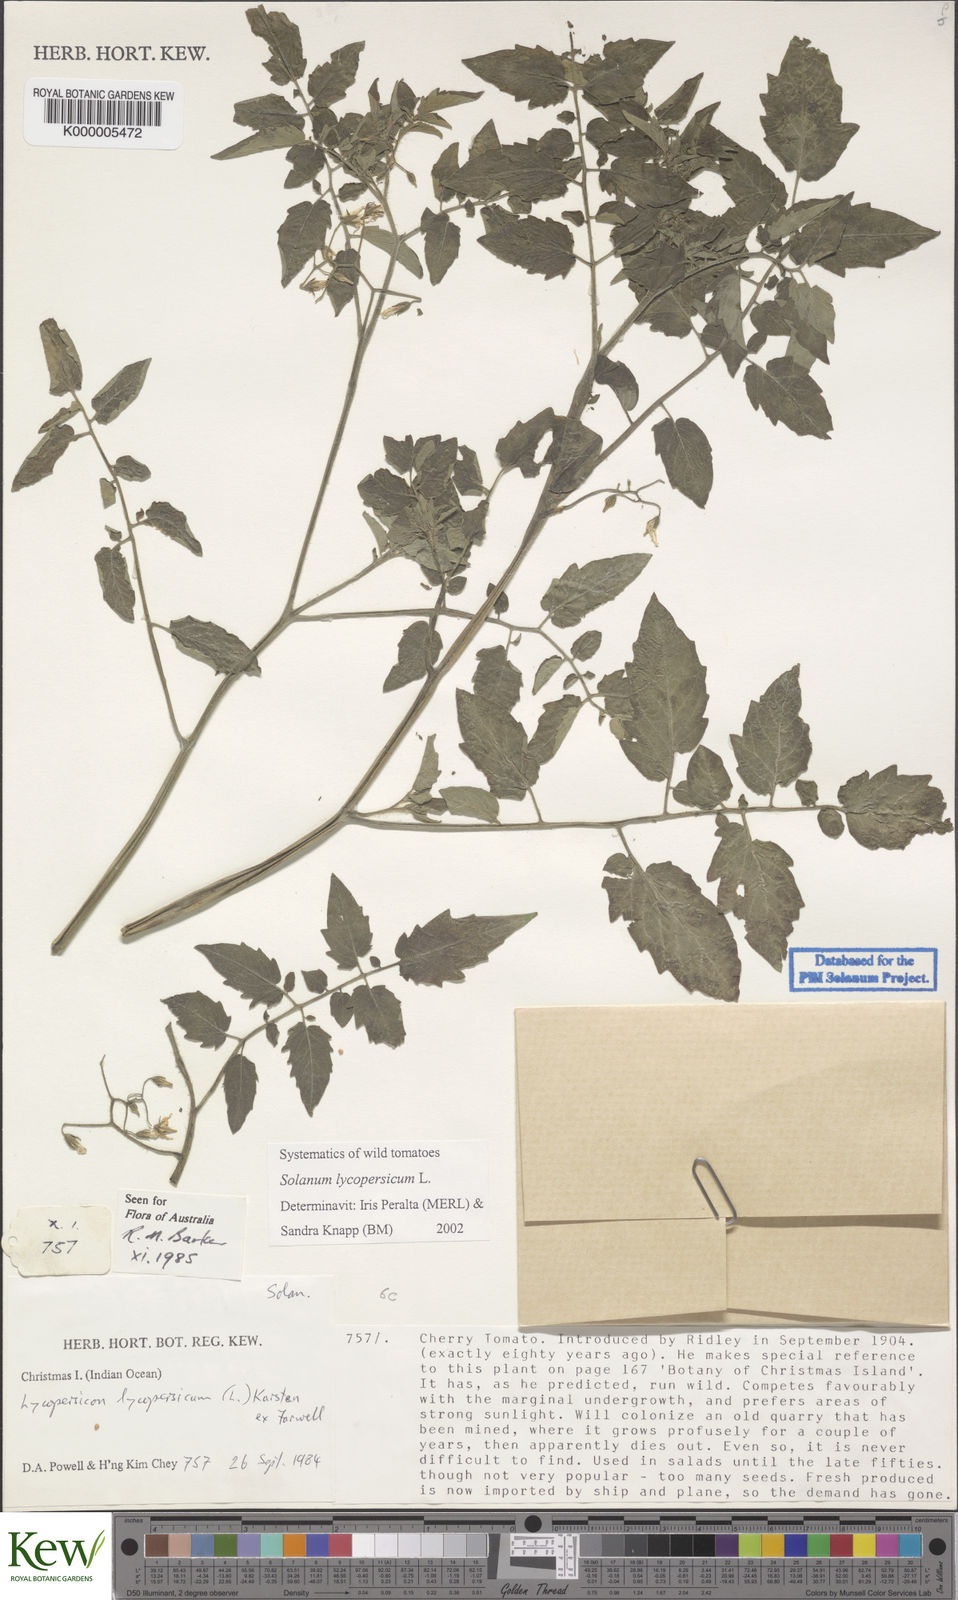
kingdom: Plantae
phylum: Tracheophyta
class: Magnoliopsida
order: Solanales
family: Solanaceae
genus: Solanum
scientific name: Solanum lycopersicum
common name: Garden tomato
